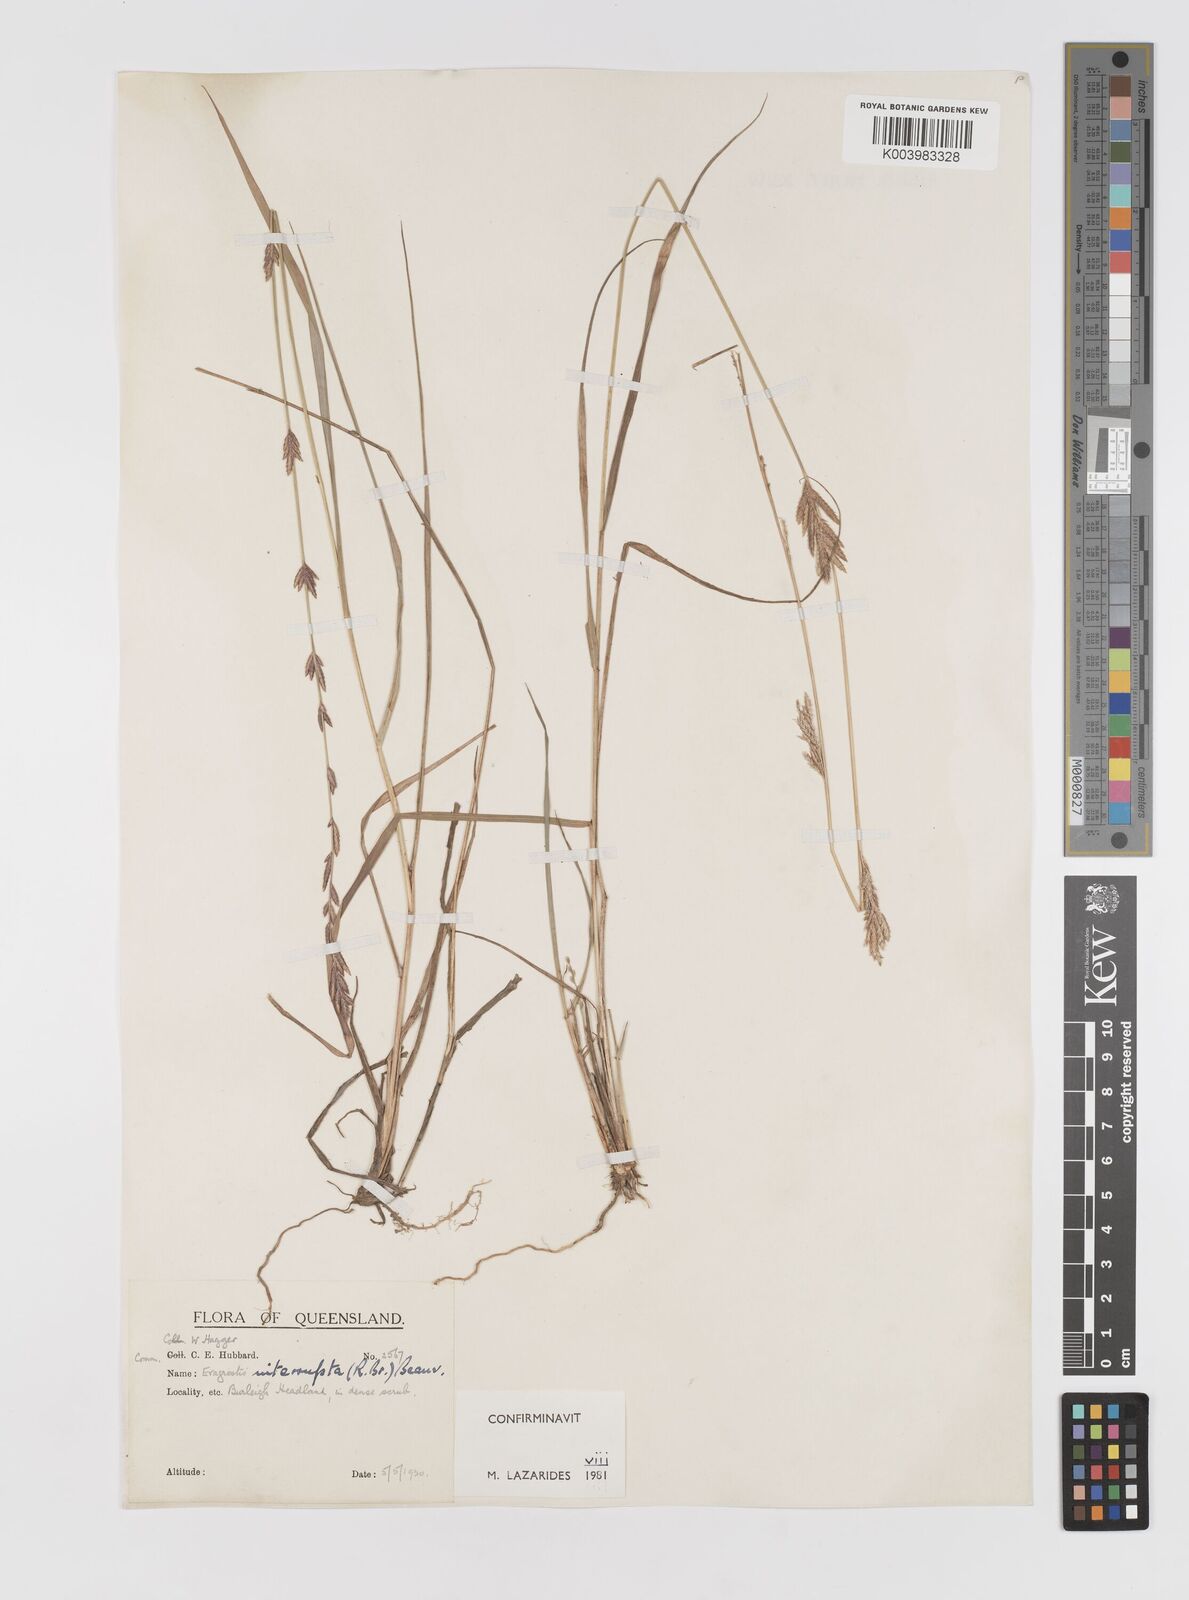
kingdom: Plantae
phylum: Tracheophyta
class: Liliopsida
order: Poales
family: Poaceae
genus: Eragrostis
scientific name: Eragrostis interrupta
